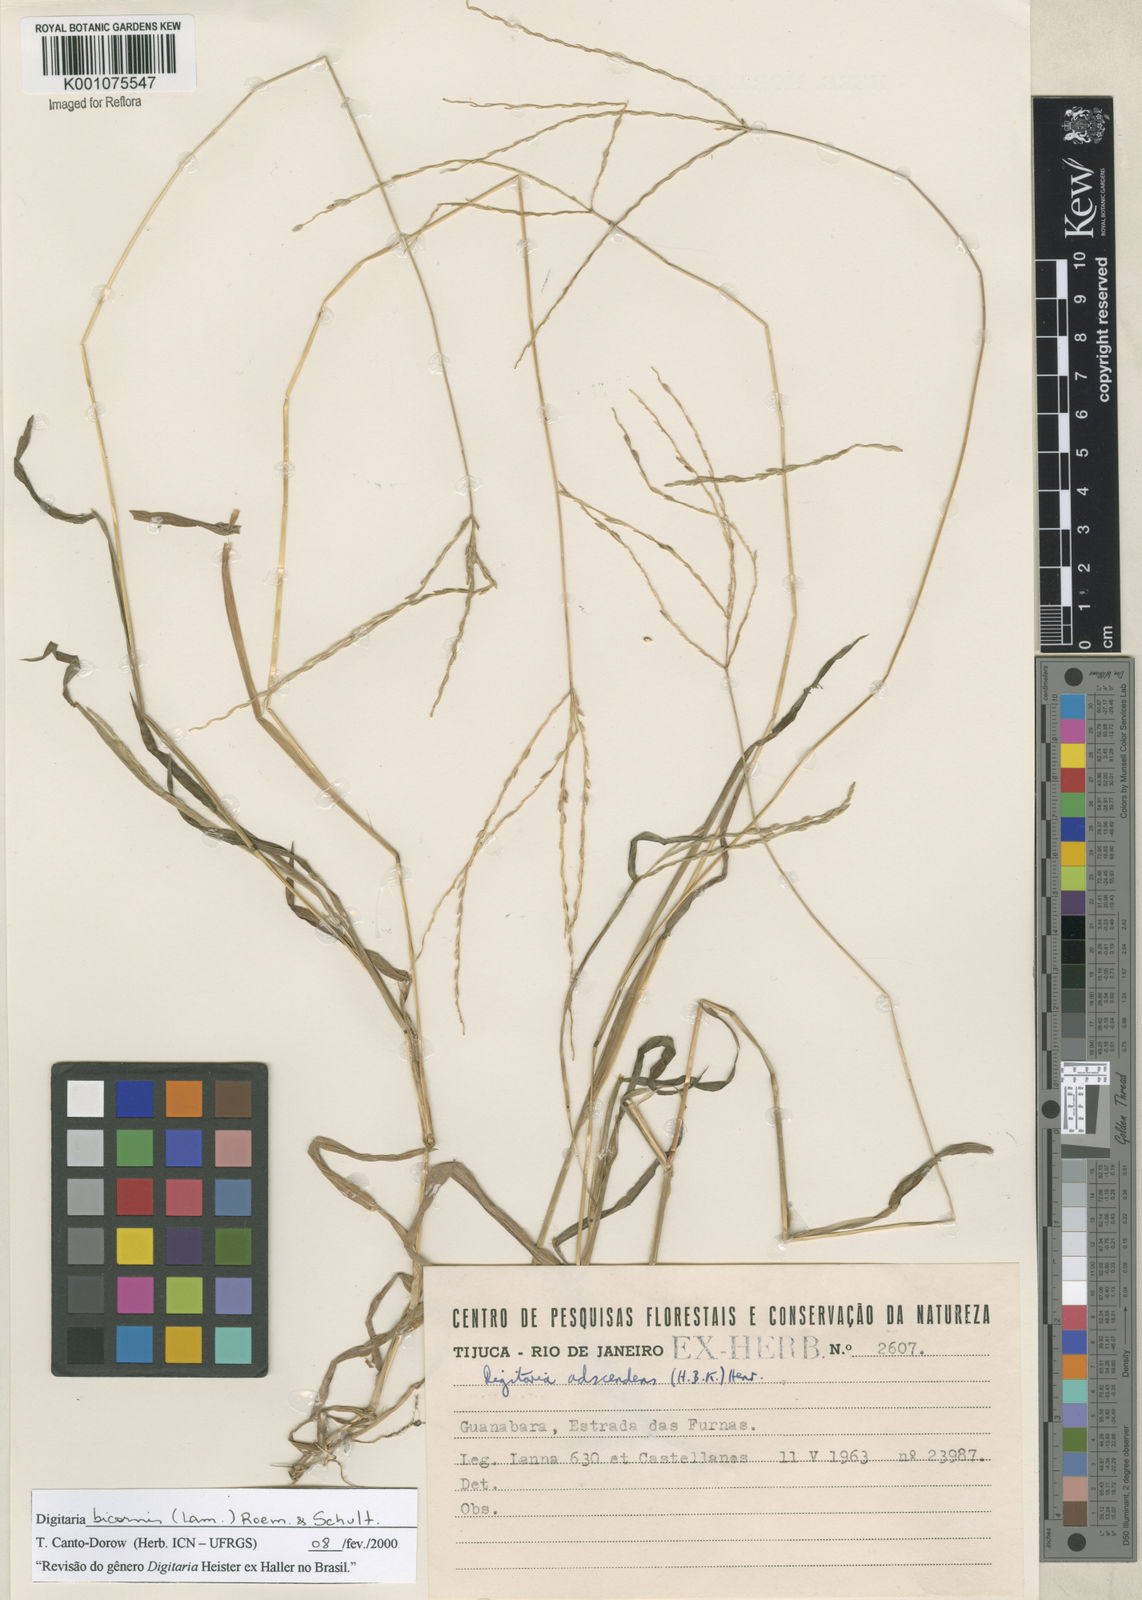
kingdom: Plantae
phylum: Tracheophyta
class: Liliopsida
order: Poales
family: Poaceae
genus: Digitaria
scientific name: Digitaria bicornis
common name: Asian crabgrass
